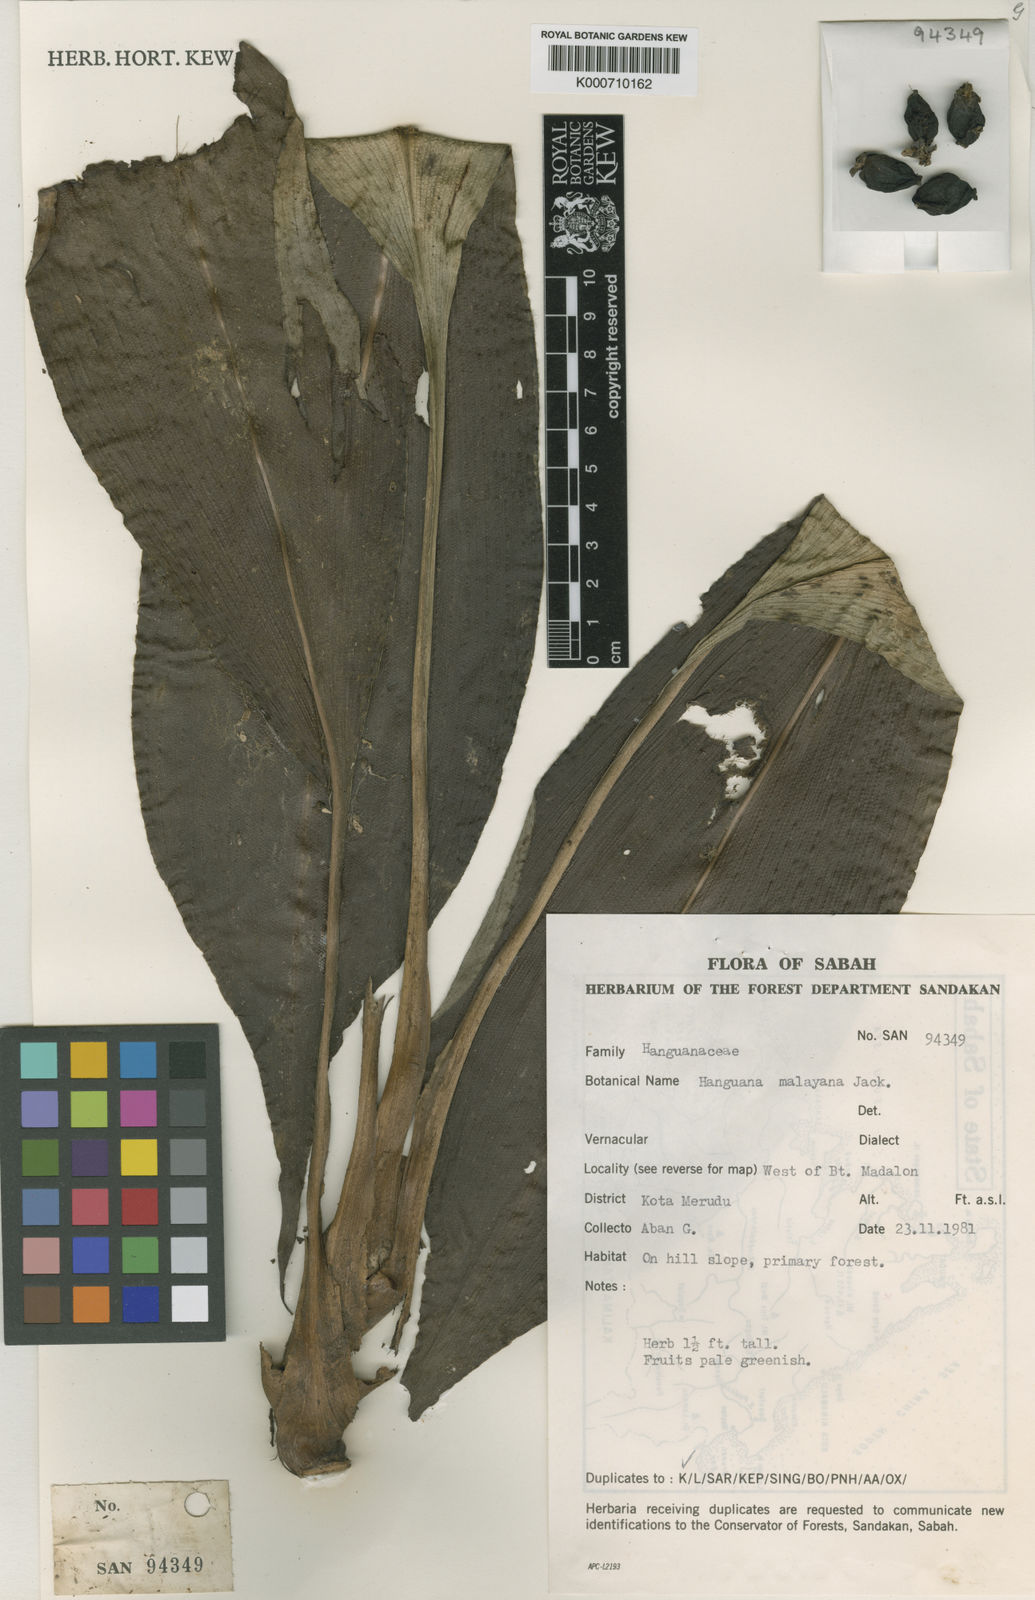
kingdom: Plantae
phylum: Tracheophyta
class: Liliopsida
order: Commelinales
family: Hanguanaceae
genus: Hanguana
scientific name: Hanguana malayana
